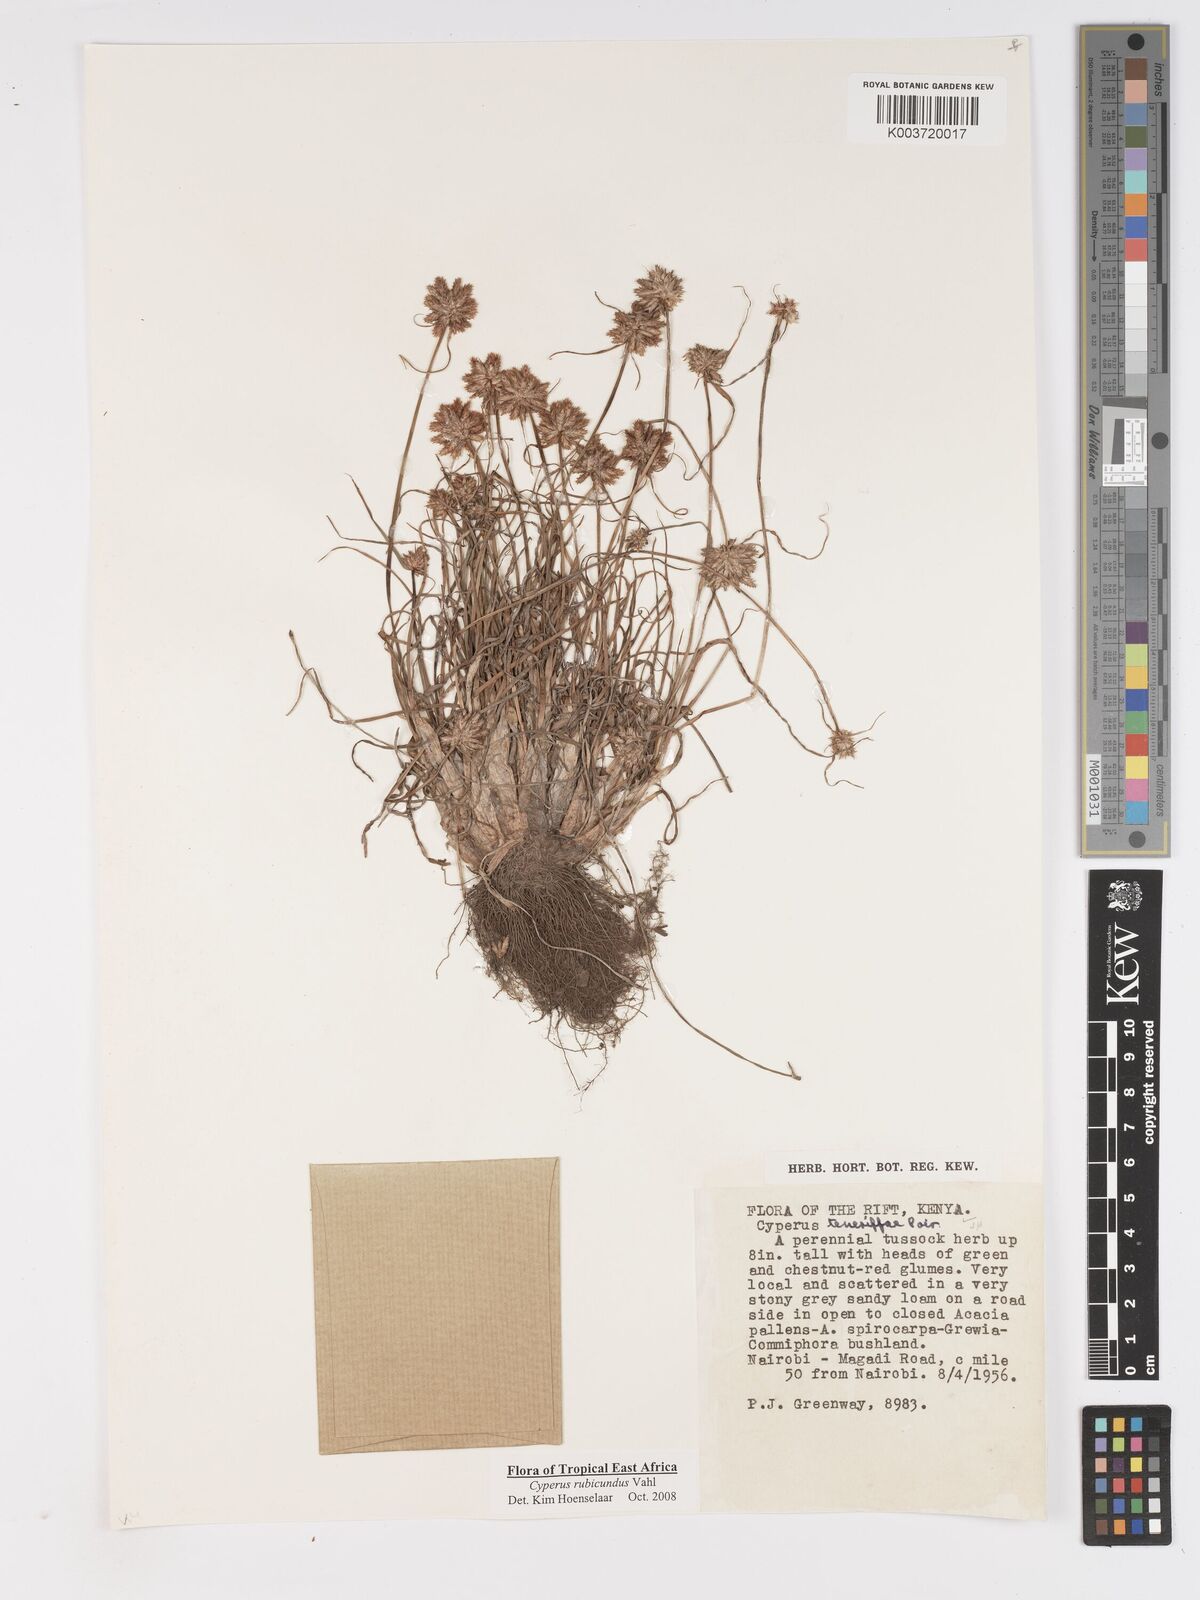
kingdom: Plantae
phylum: Tracheophyta
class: Liliopsida
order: Poales
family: Cyperaceae
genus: Cyperus
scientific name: Cyperus rubicundus
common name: Coco-grass
